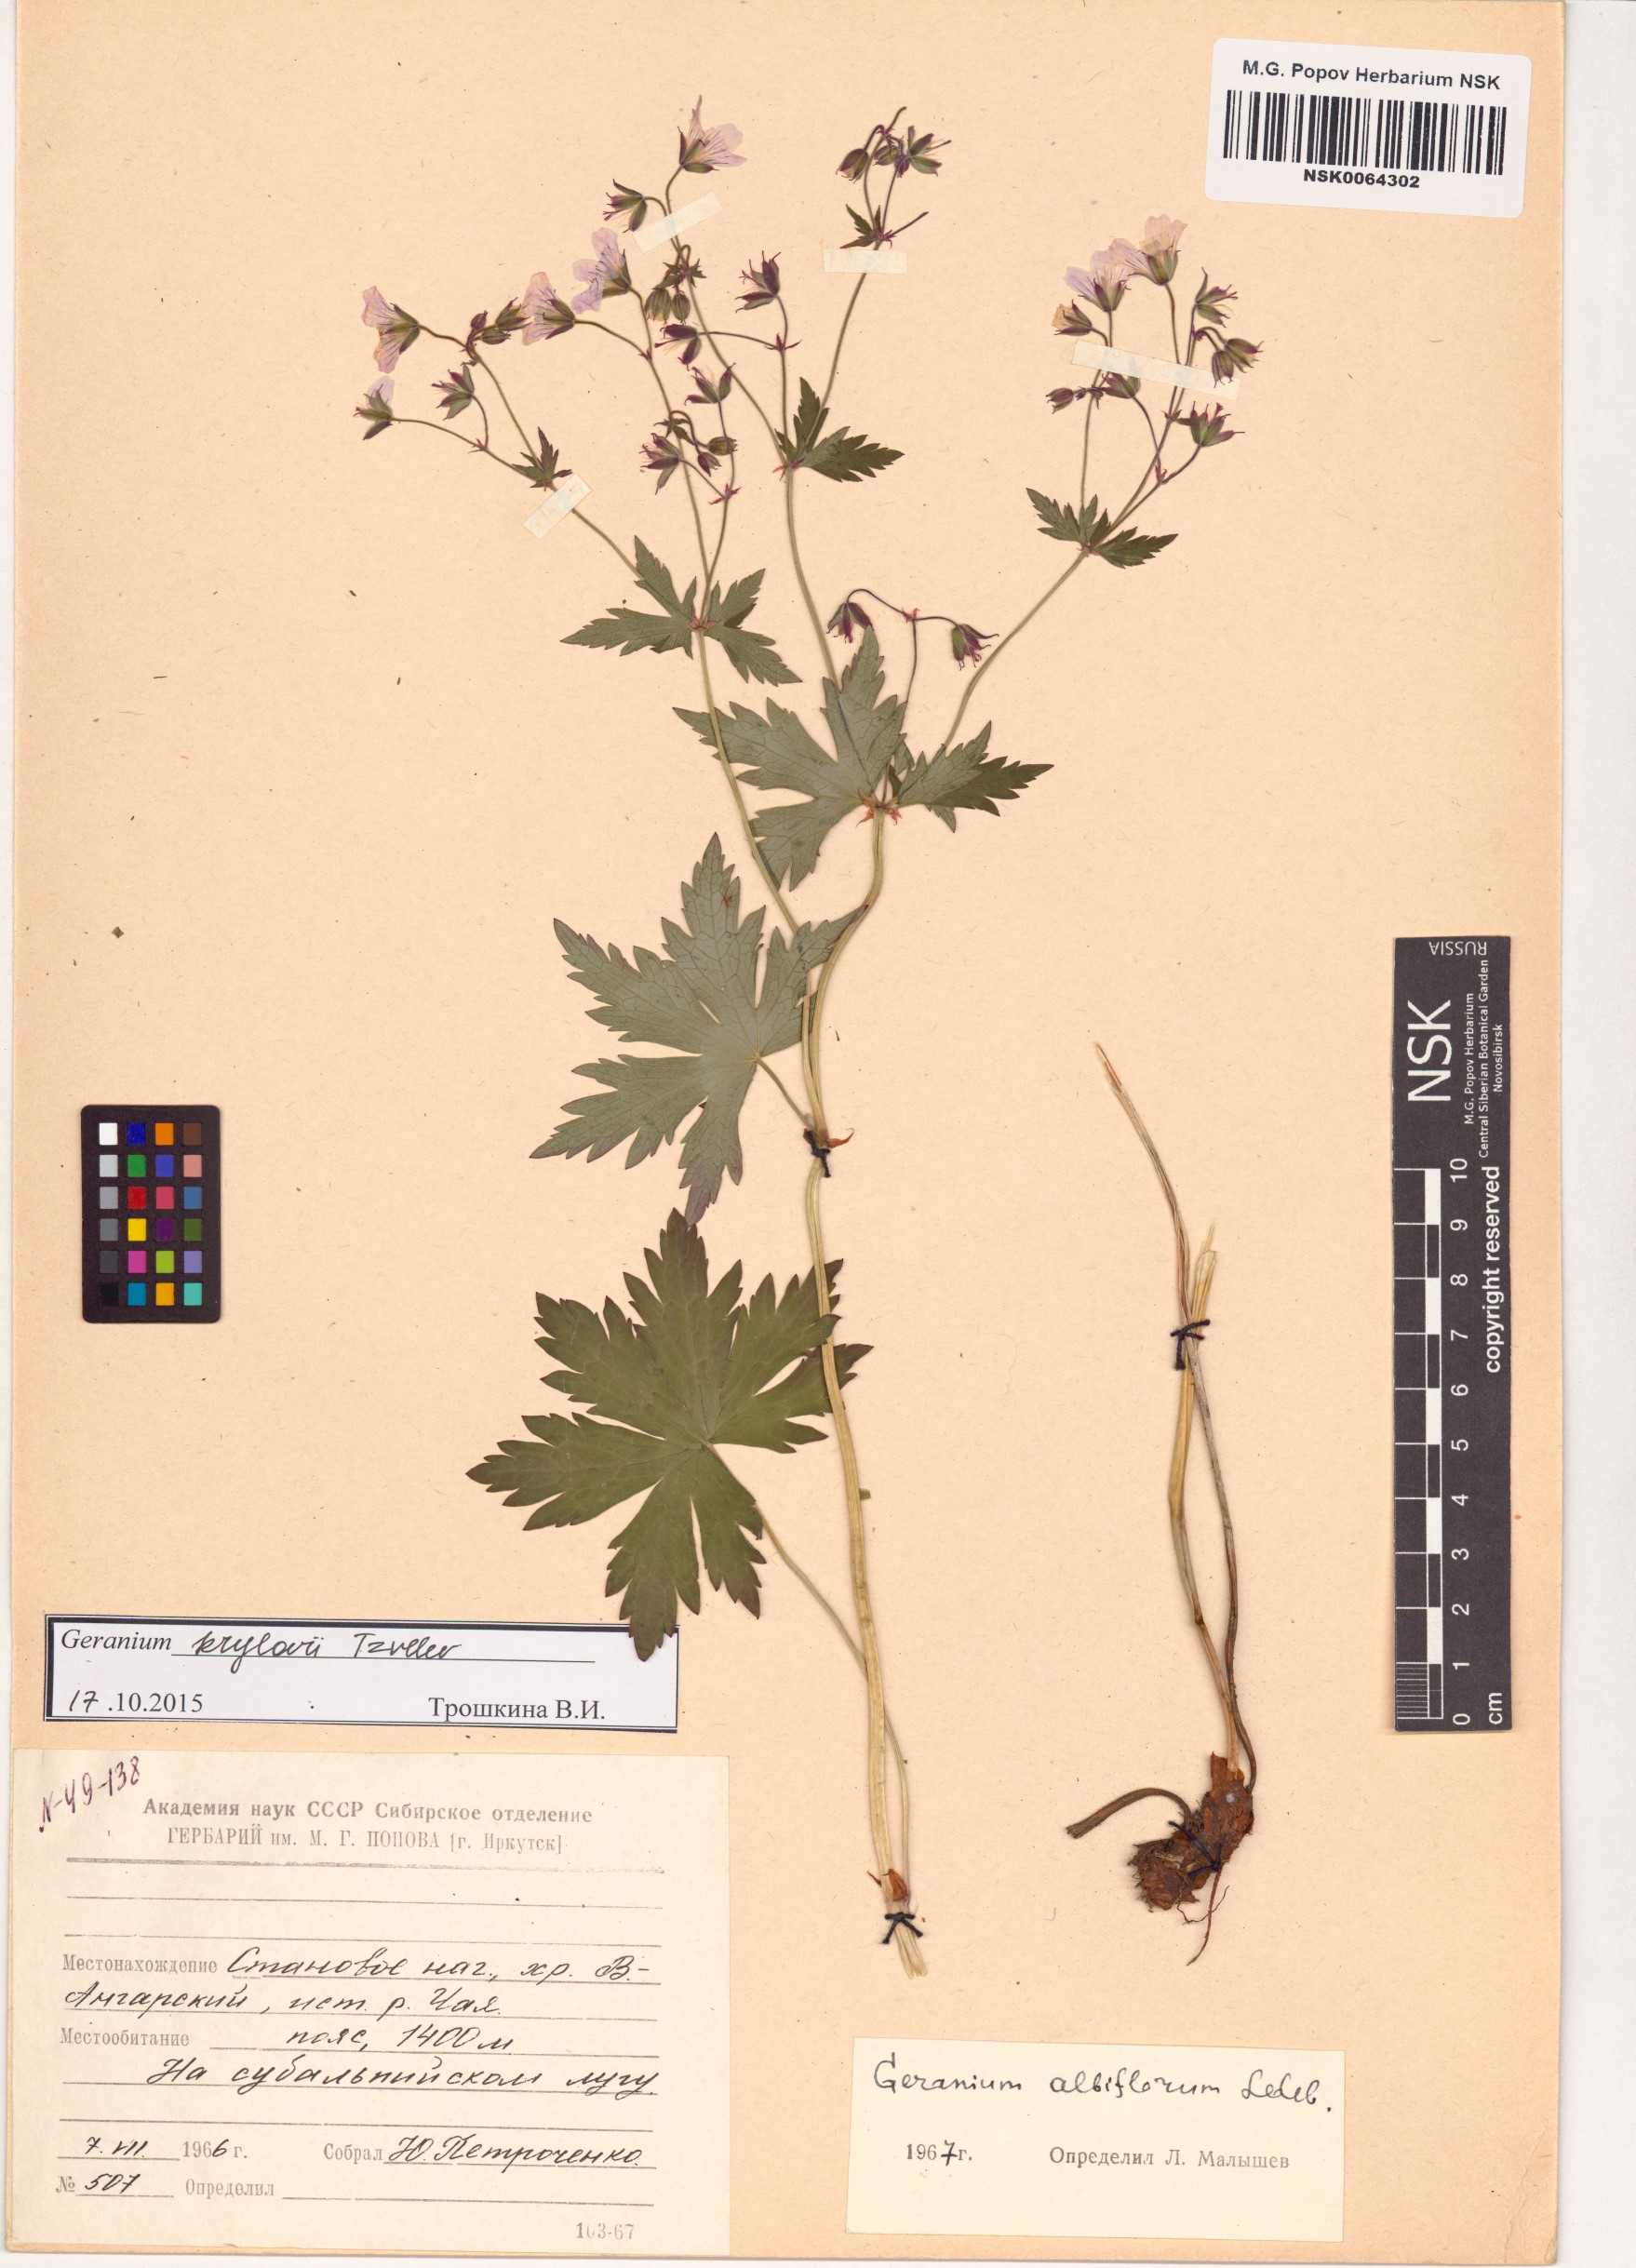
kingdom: Plantae
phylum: Tracheophyta
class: Magnoliopsida
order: Geraniales
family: Geraniaceae
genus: Geranium
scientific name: Geranium sylvaticum
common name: Wood crane's-bill
